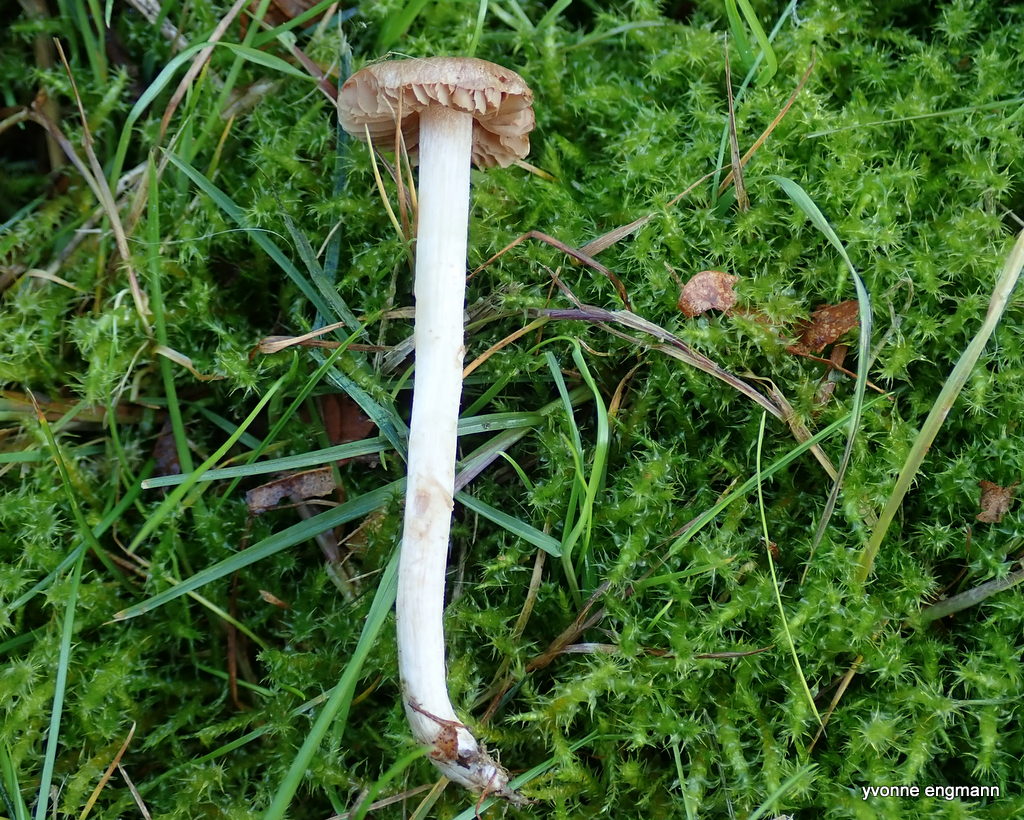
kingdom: Fungi
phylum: Basidiomycota
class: Agaricomycetes
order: Agaricales
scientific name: Agaricales
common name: champignonordenen
